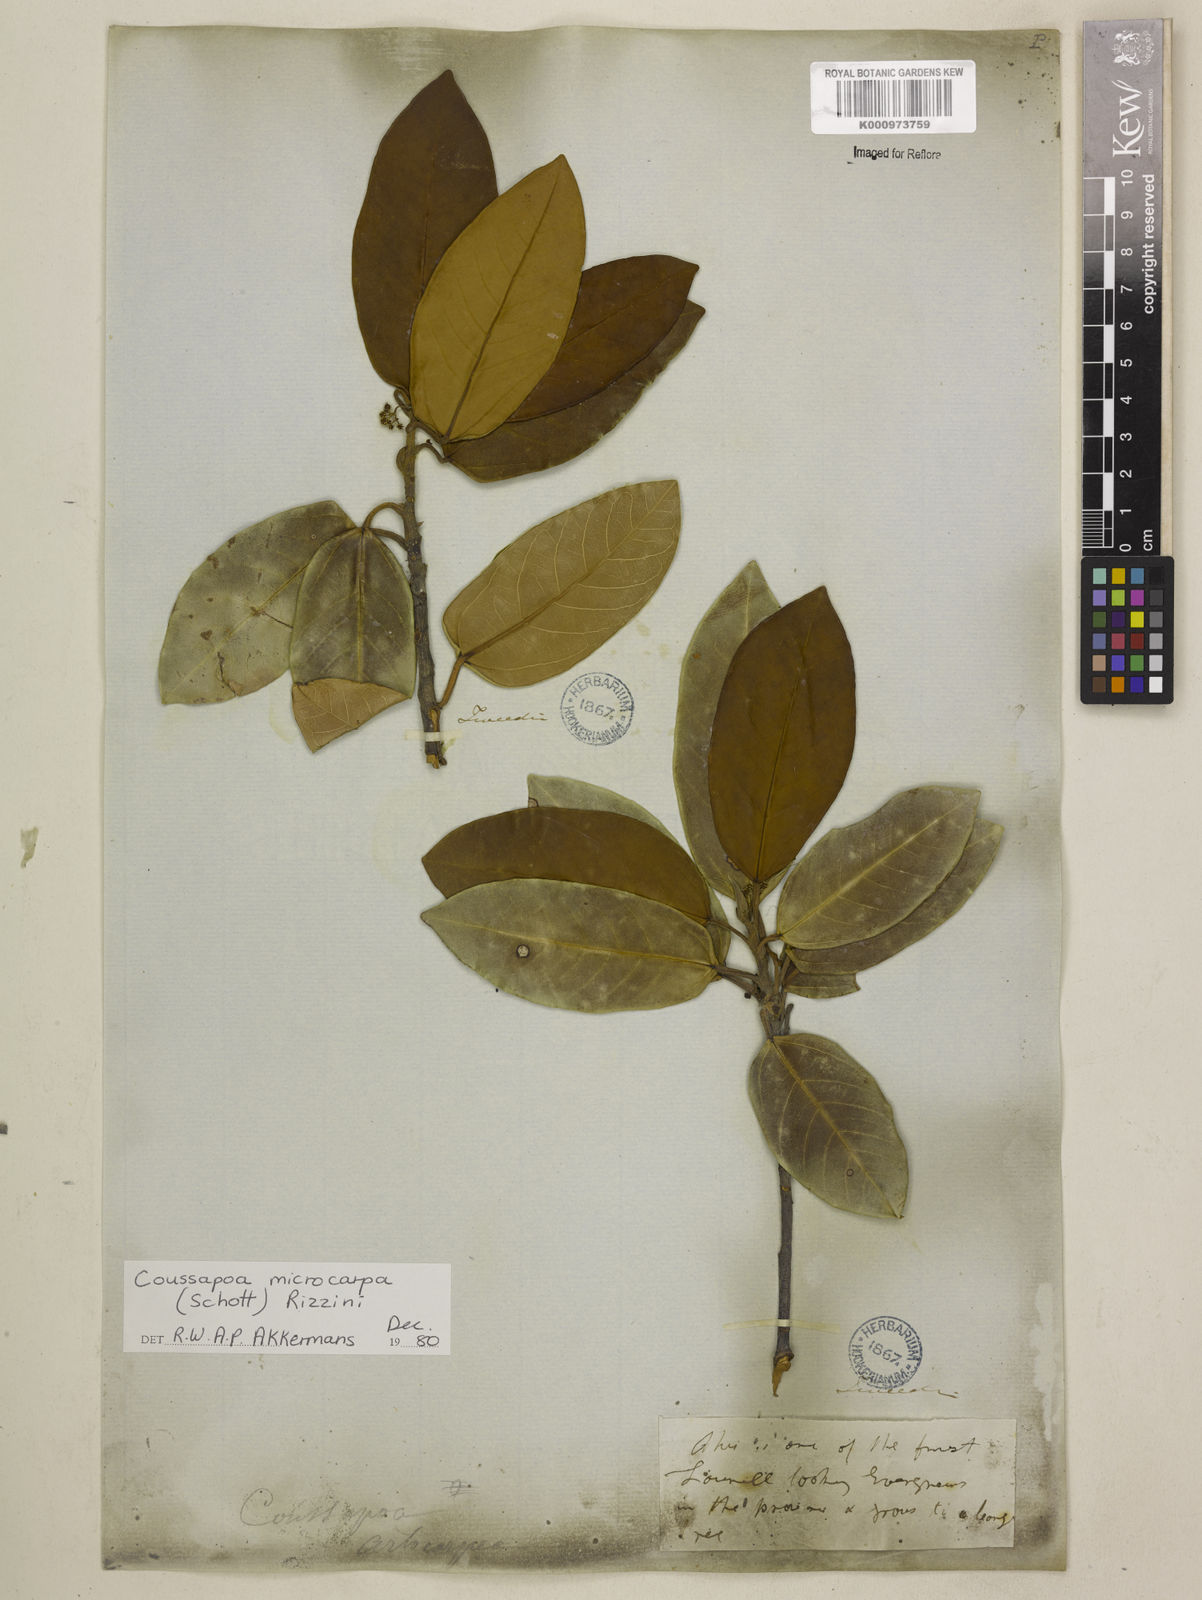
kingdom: Plantae
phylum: Tracheophyta
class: Magnoliopsida
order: Rosales
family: Urticaceae
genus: Coussapoa
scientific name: Coussapoa microcarpa
